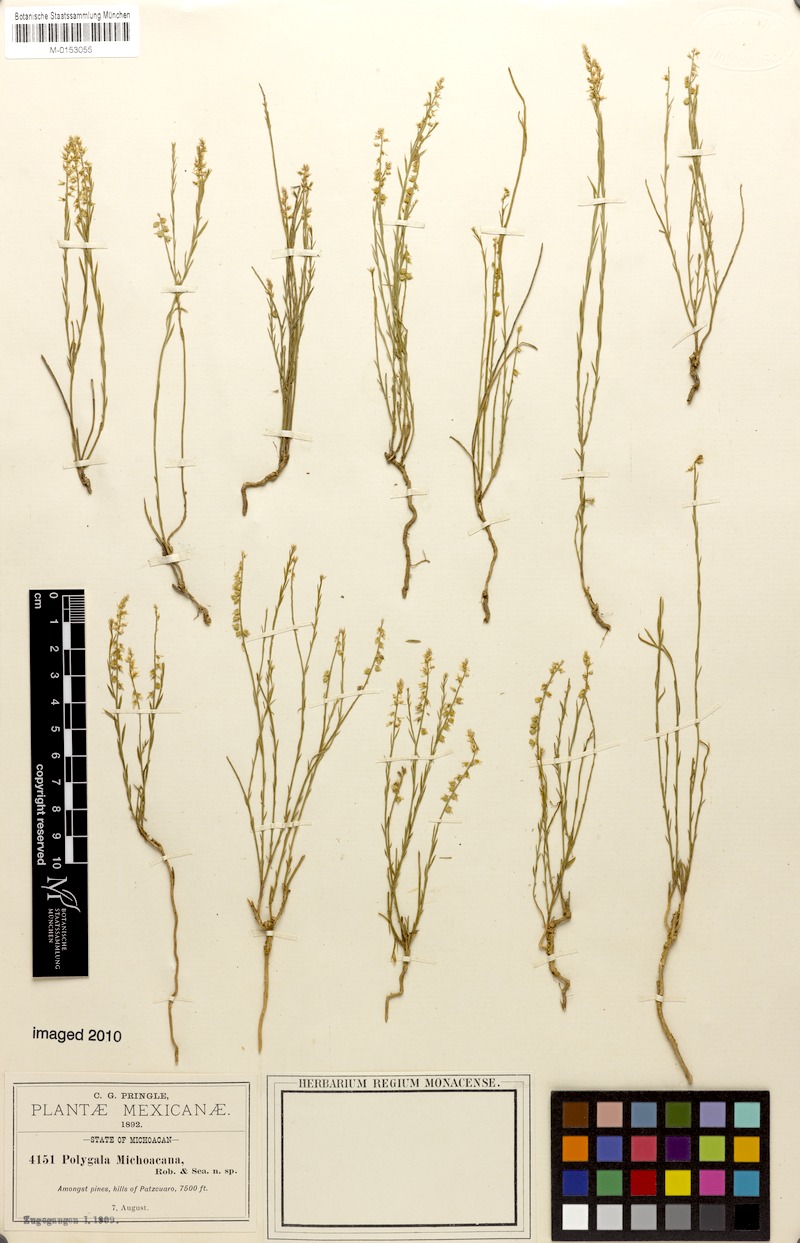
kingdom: Plantae
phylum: Tracheophyta
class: Magnoliopsida
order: Fabales
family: Polygalaceae
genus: Polygala
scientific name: Polygala mexicana
